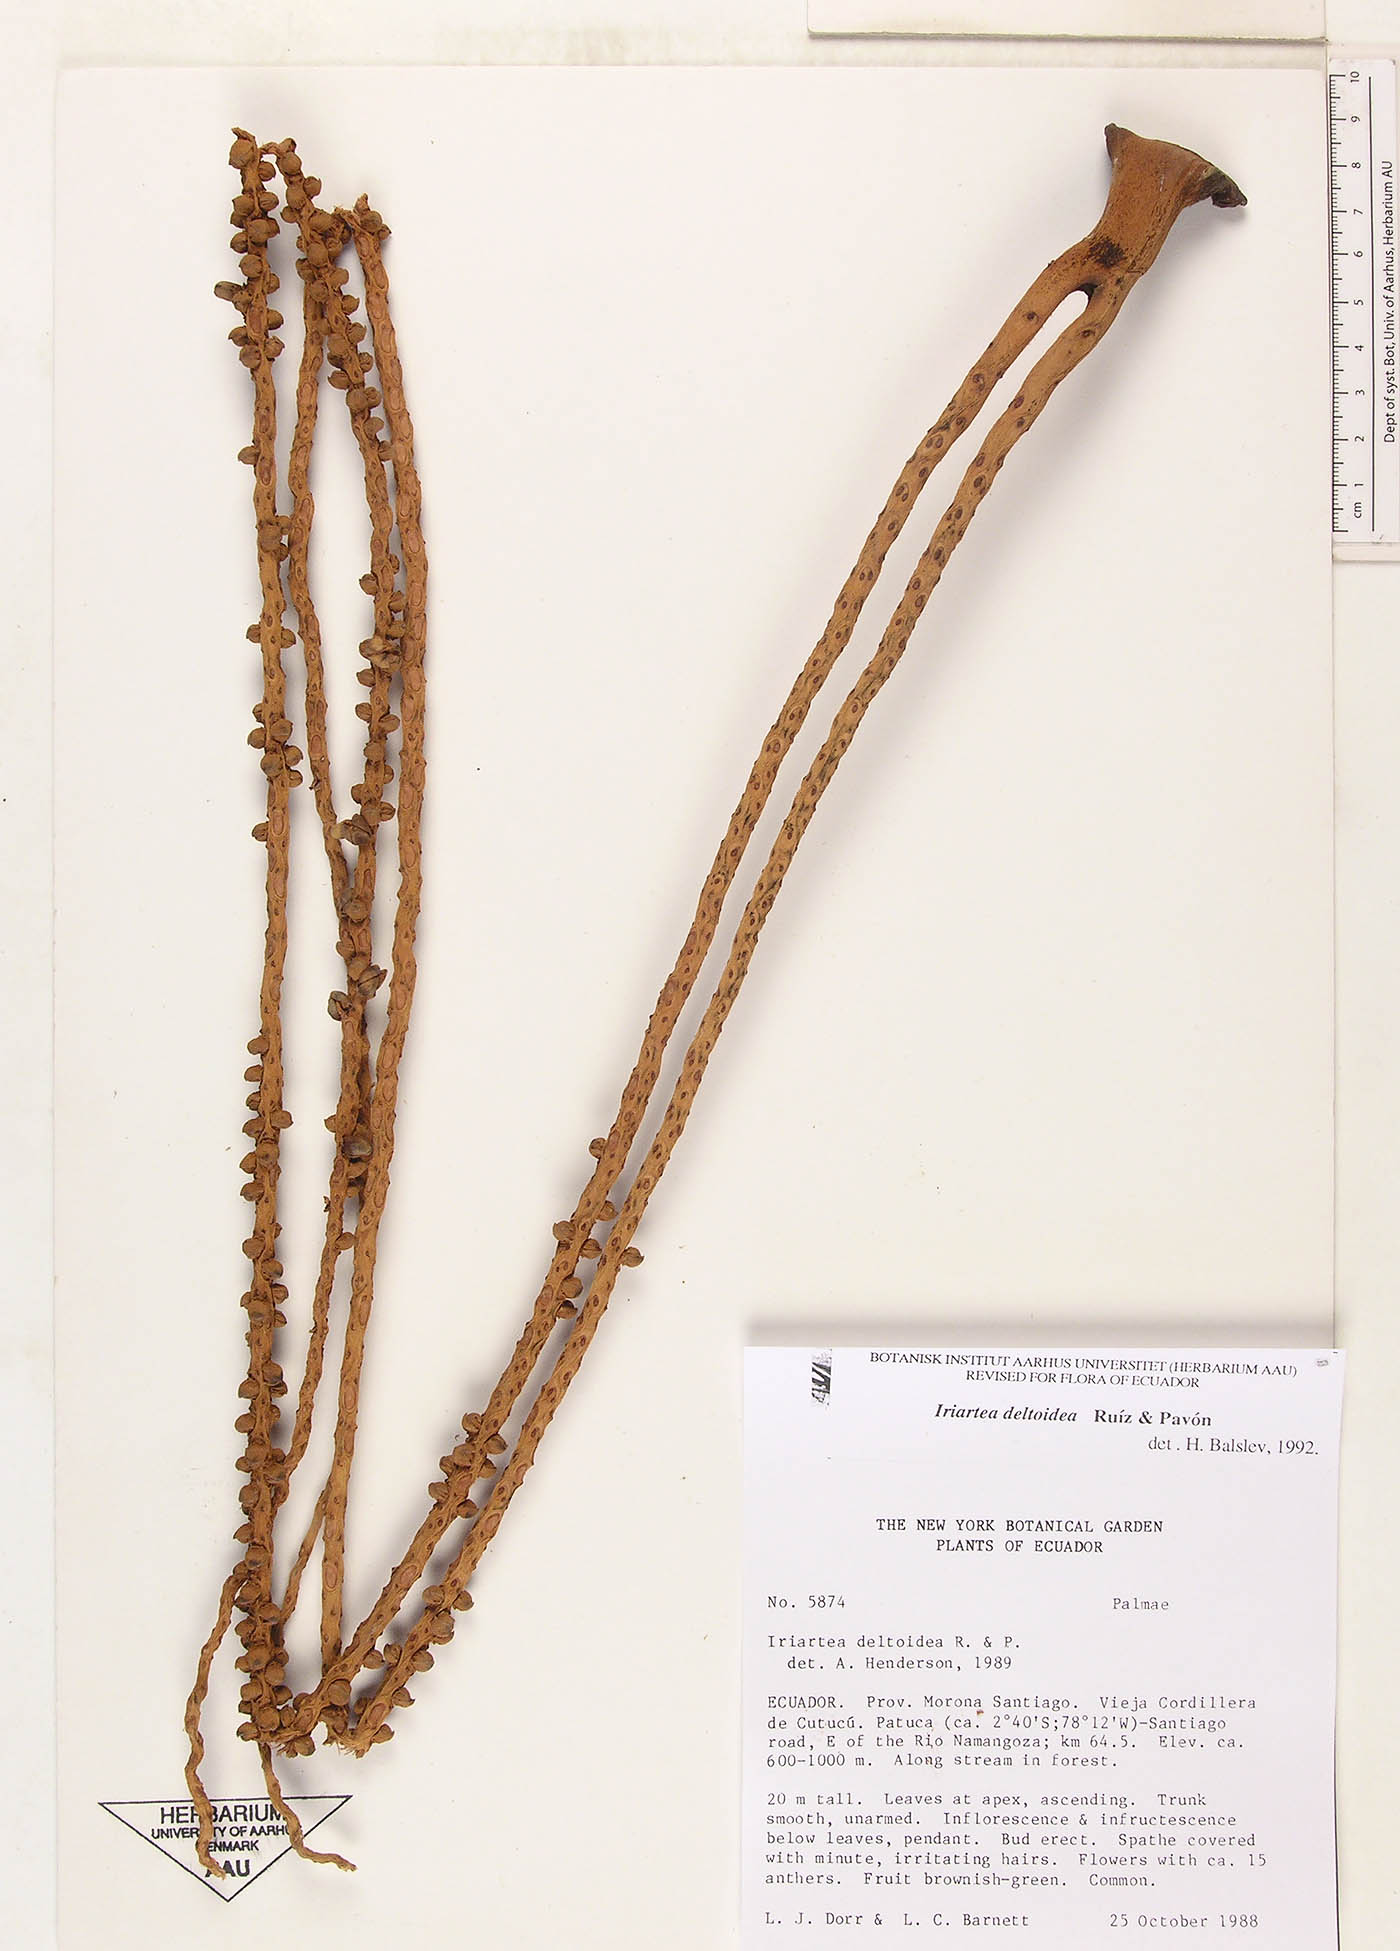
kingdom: Plantae
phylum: Tracheophyta
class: Liliopsida
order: Arecales
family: Arecaceae
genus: Iriartea
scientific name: Iriartea deltoidea
